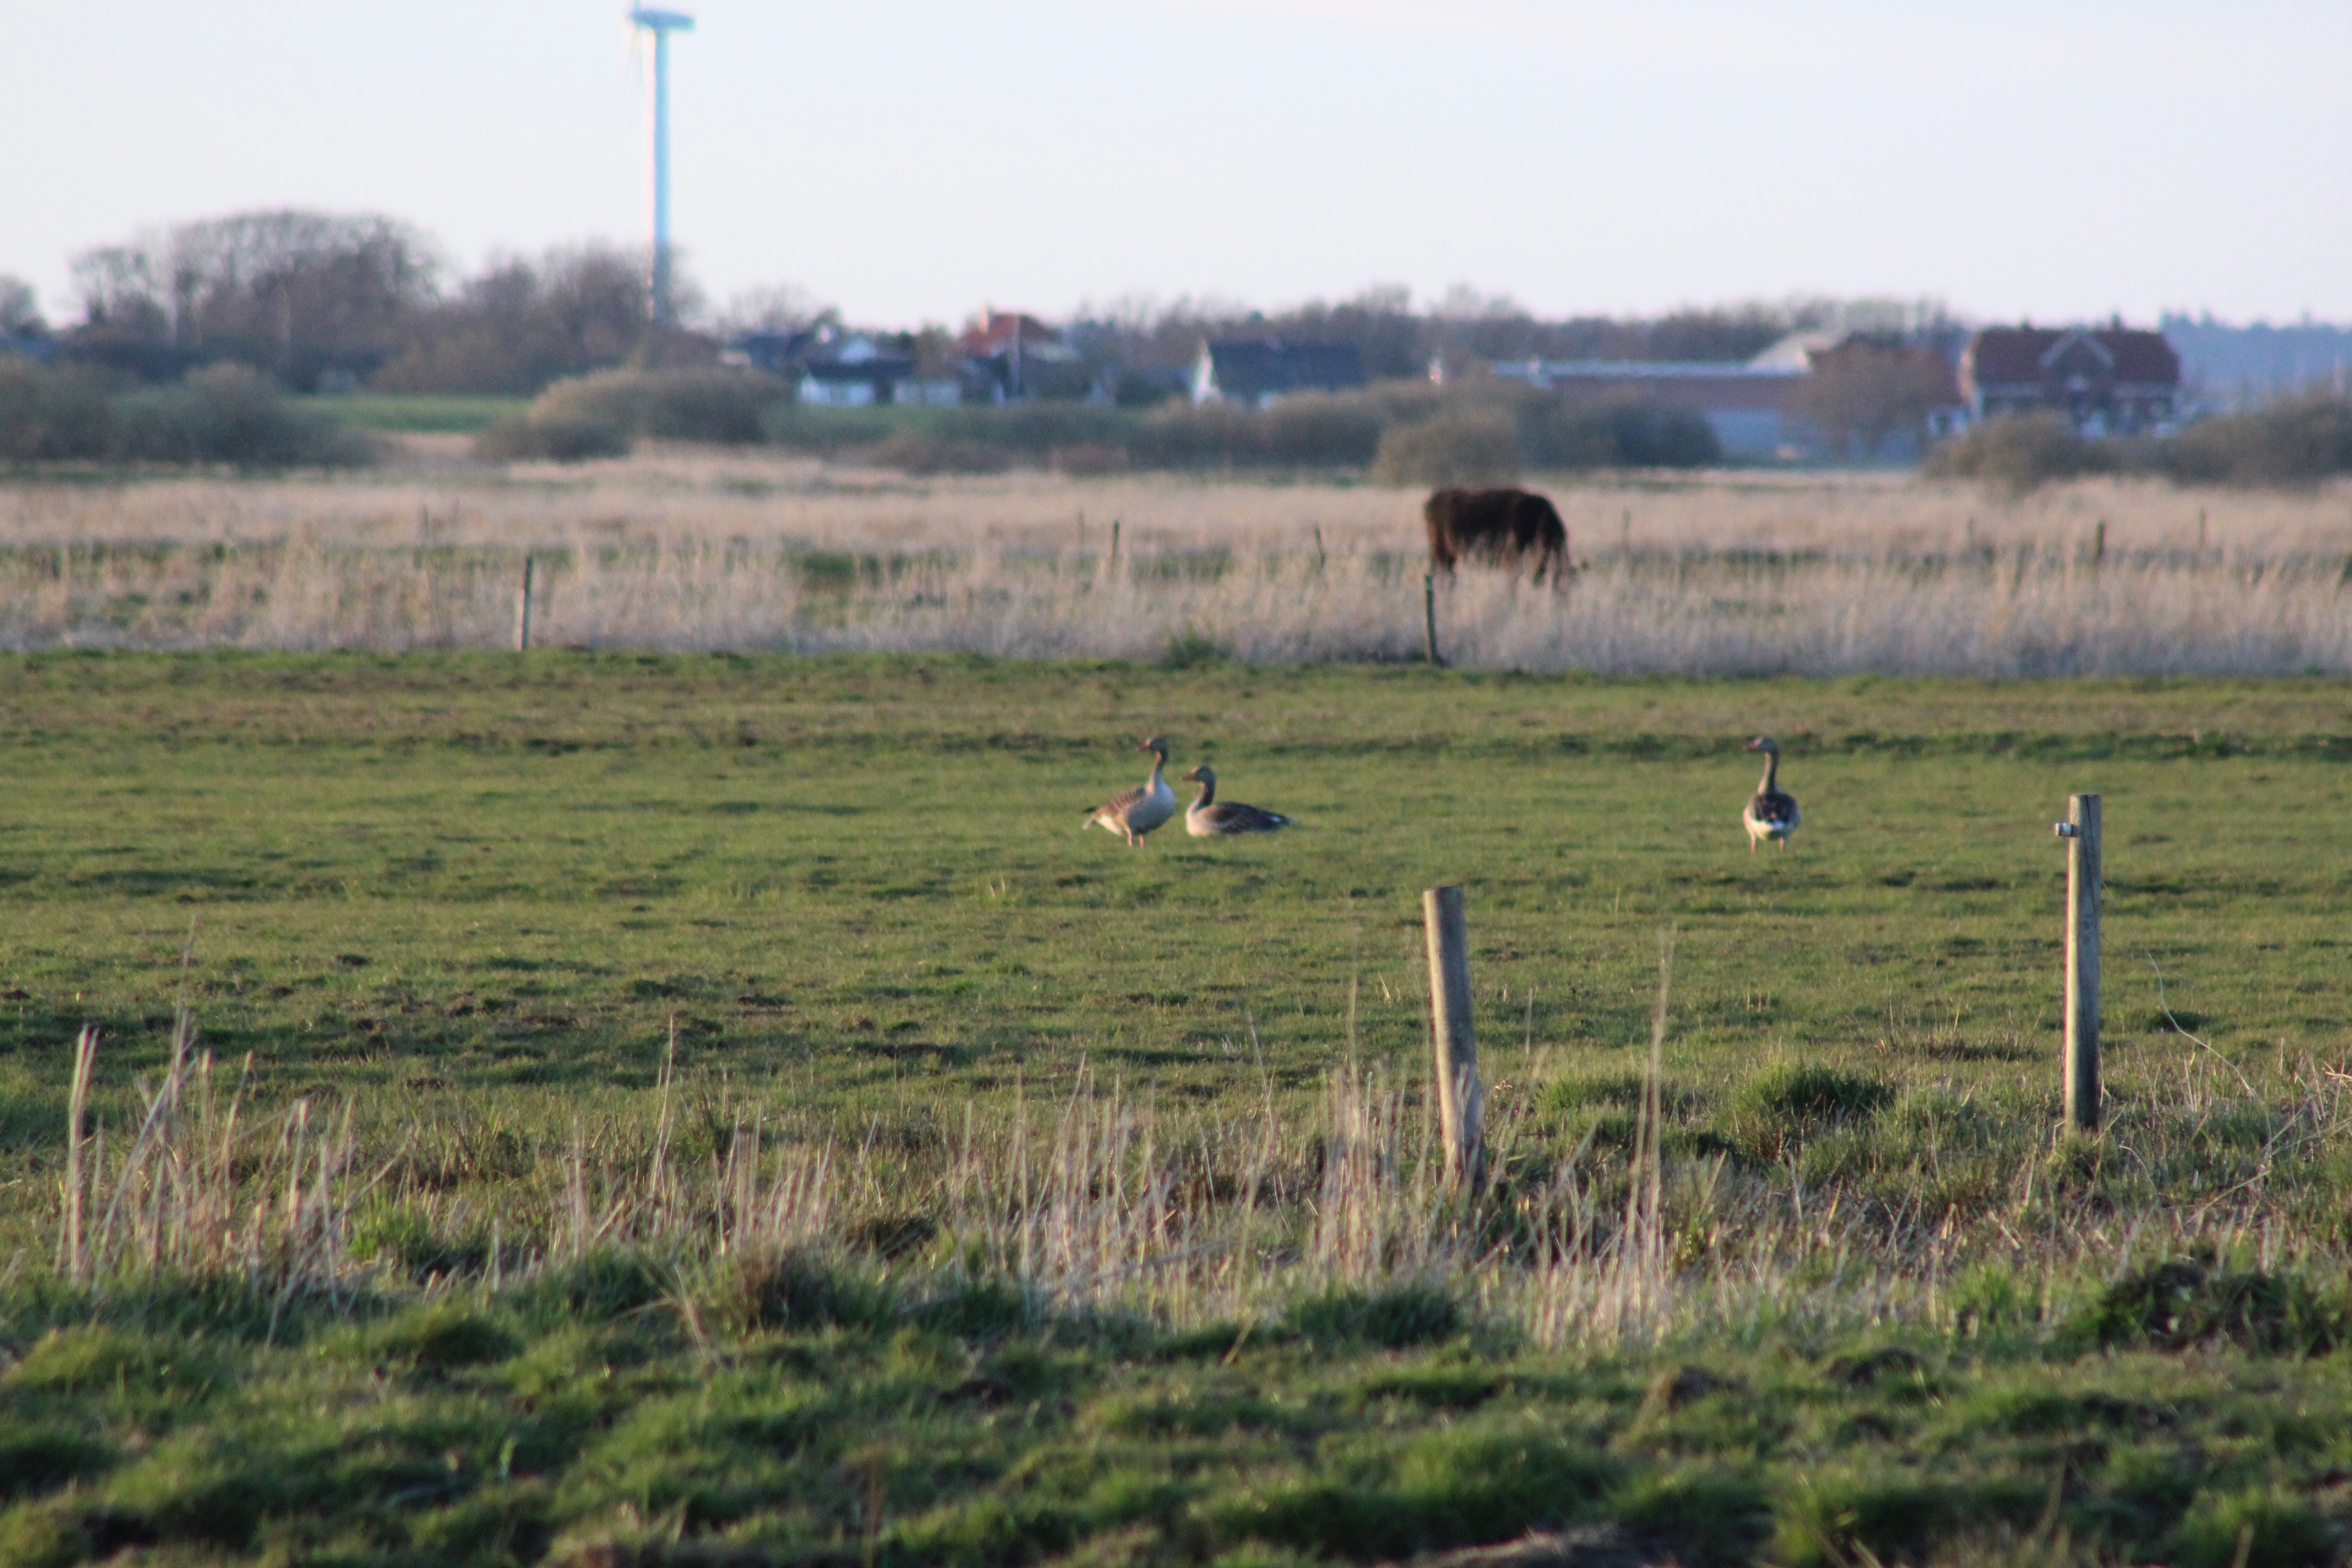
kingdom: Animalia
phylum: Chordata
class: Aves
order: Anseriformes
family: Anatidae
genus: Anser
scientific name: Anser anser
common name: Grågås
